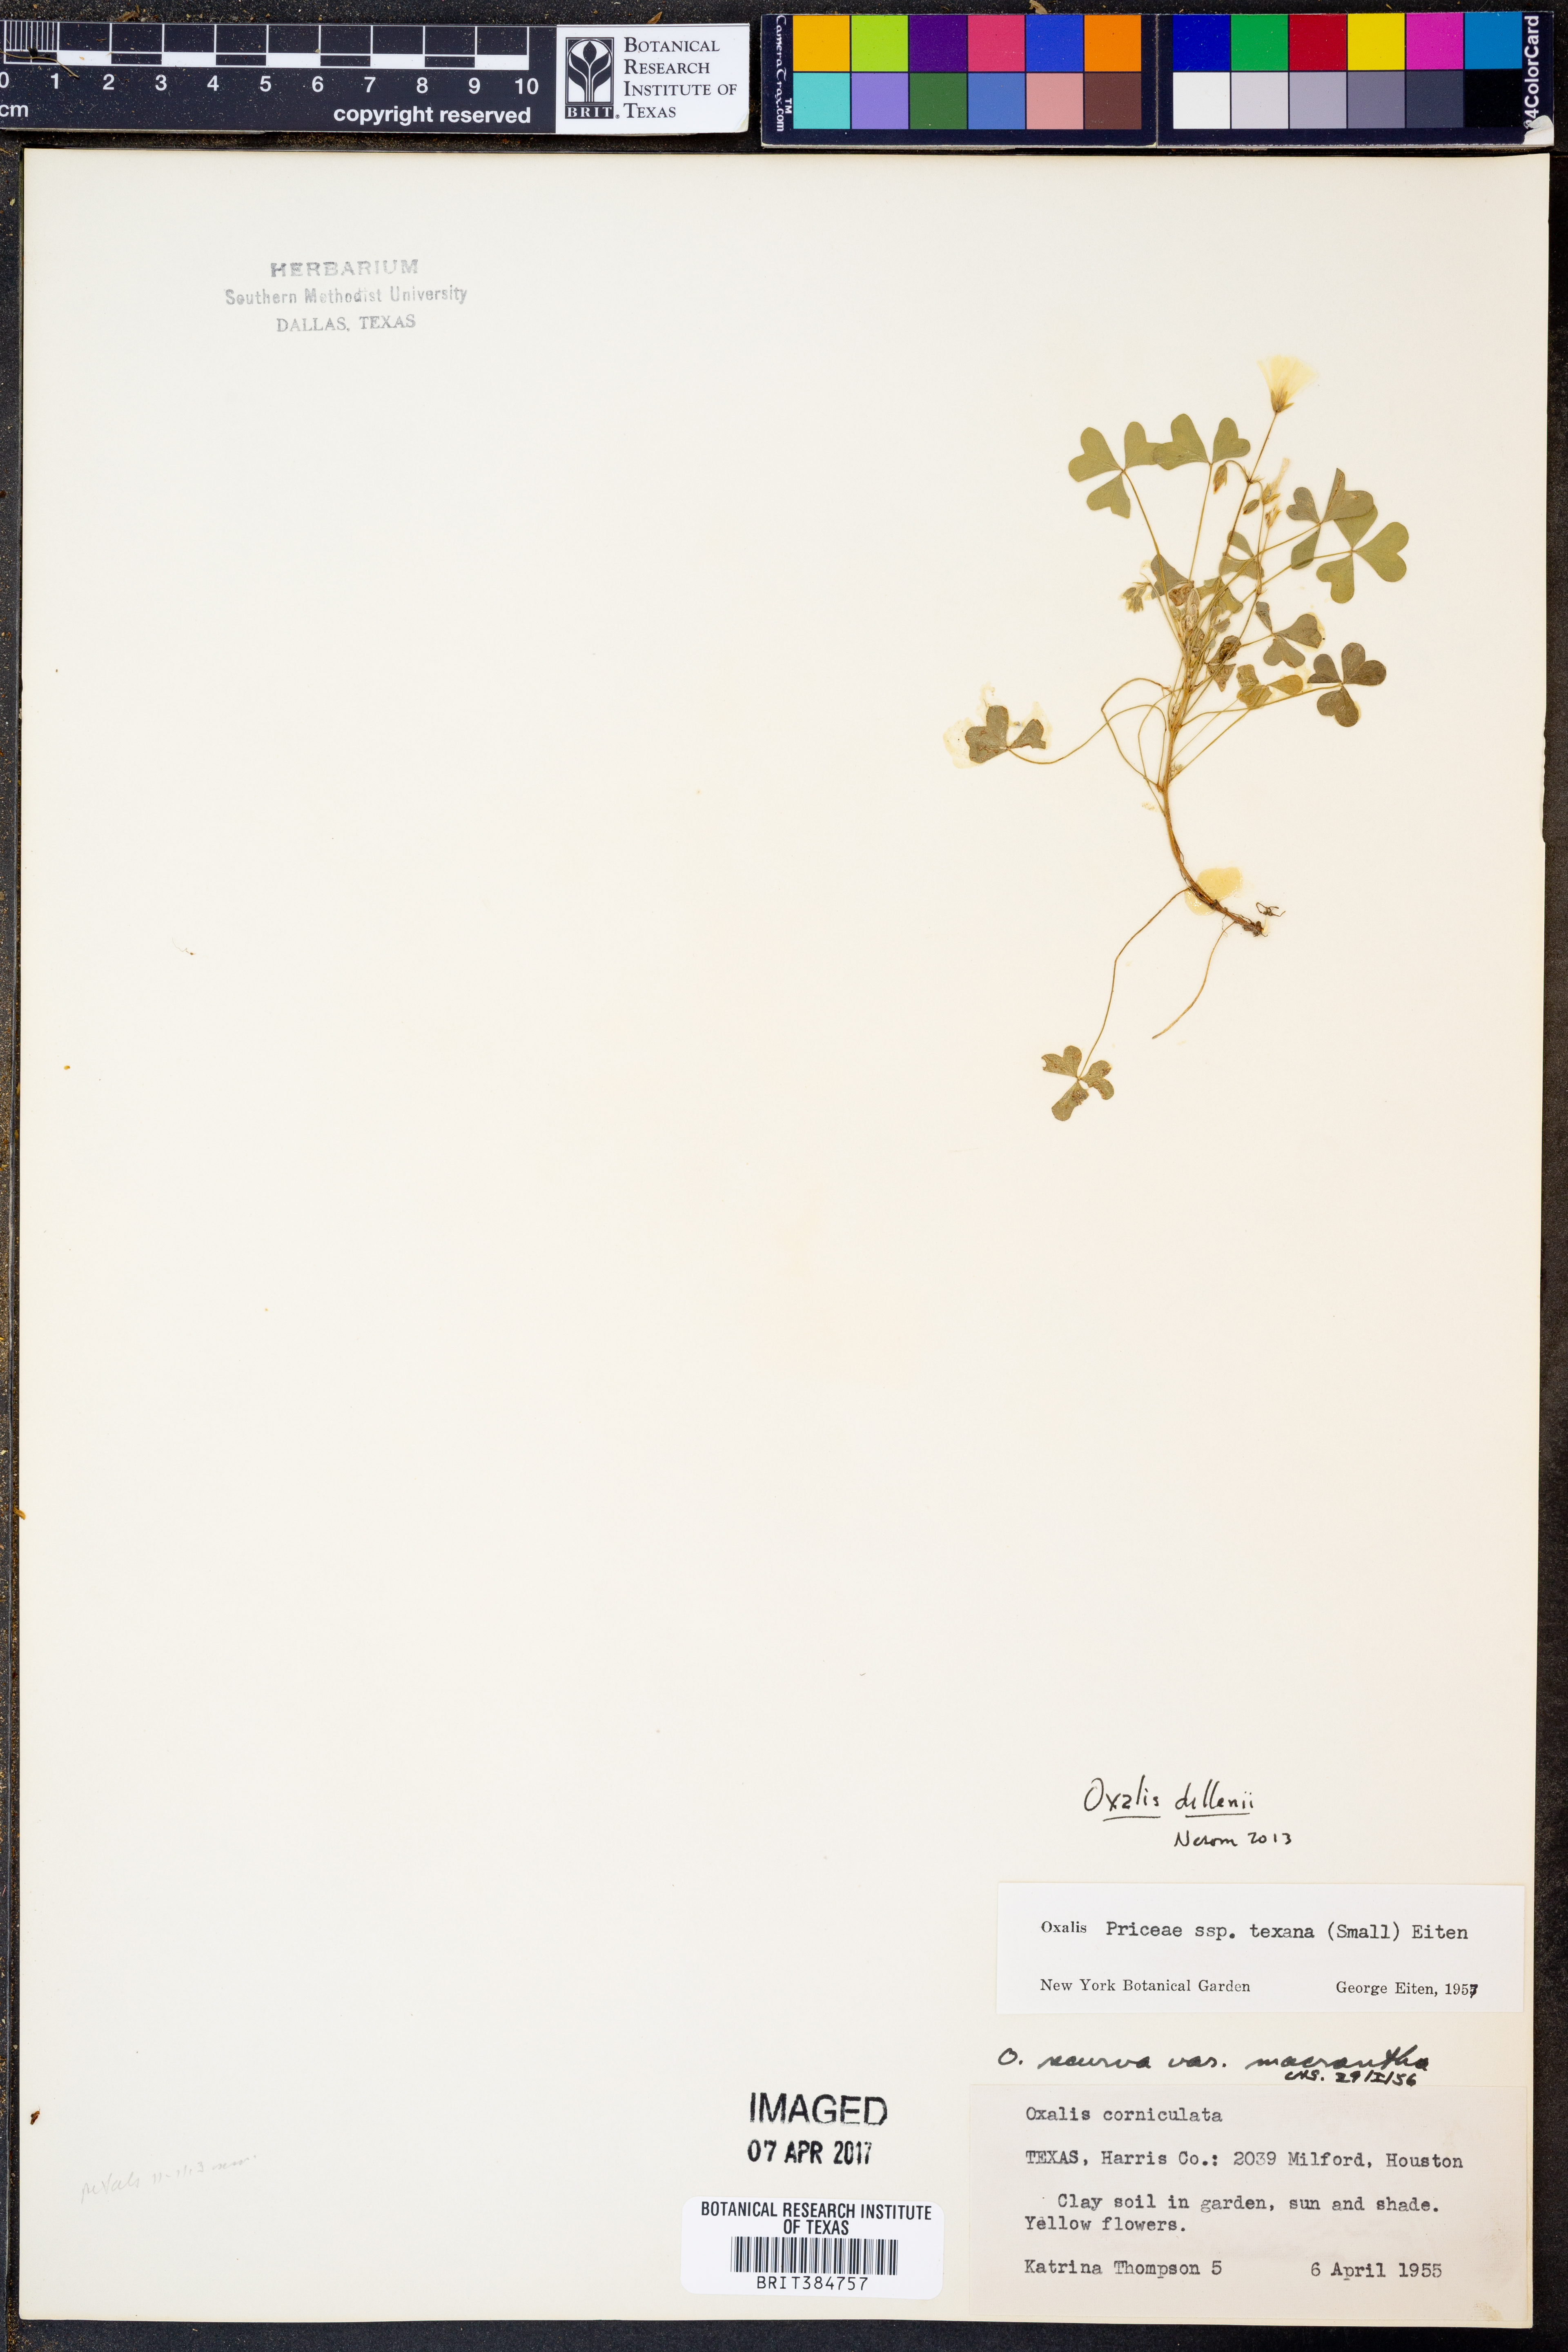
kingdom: Plantae
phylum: Tracheophyta
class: Magnoliopsida
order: Oxalidales
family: Oxalidaceae
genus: Oxalis
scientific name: Oxalis dillenii
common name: Sussex yellow-sorrel
